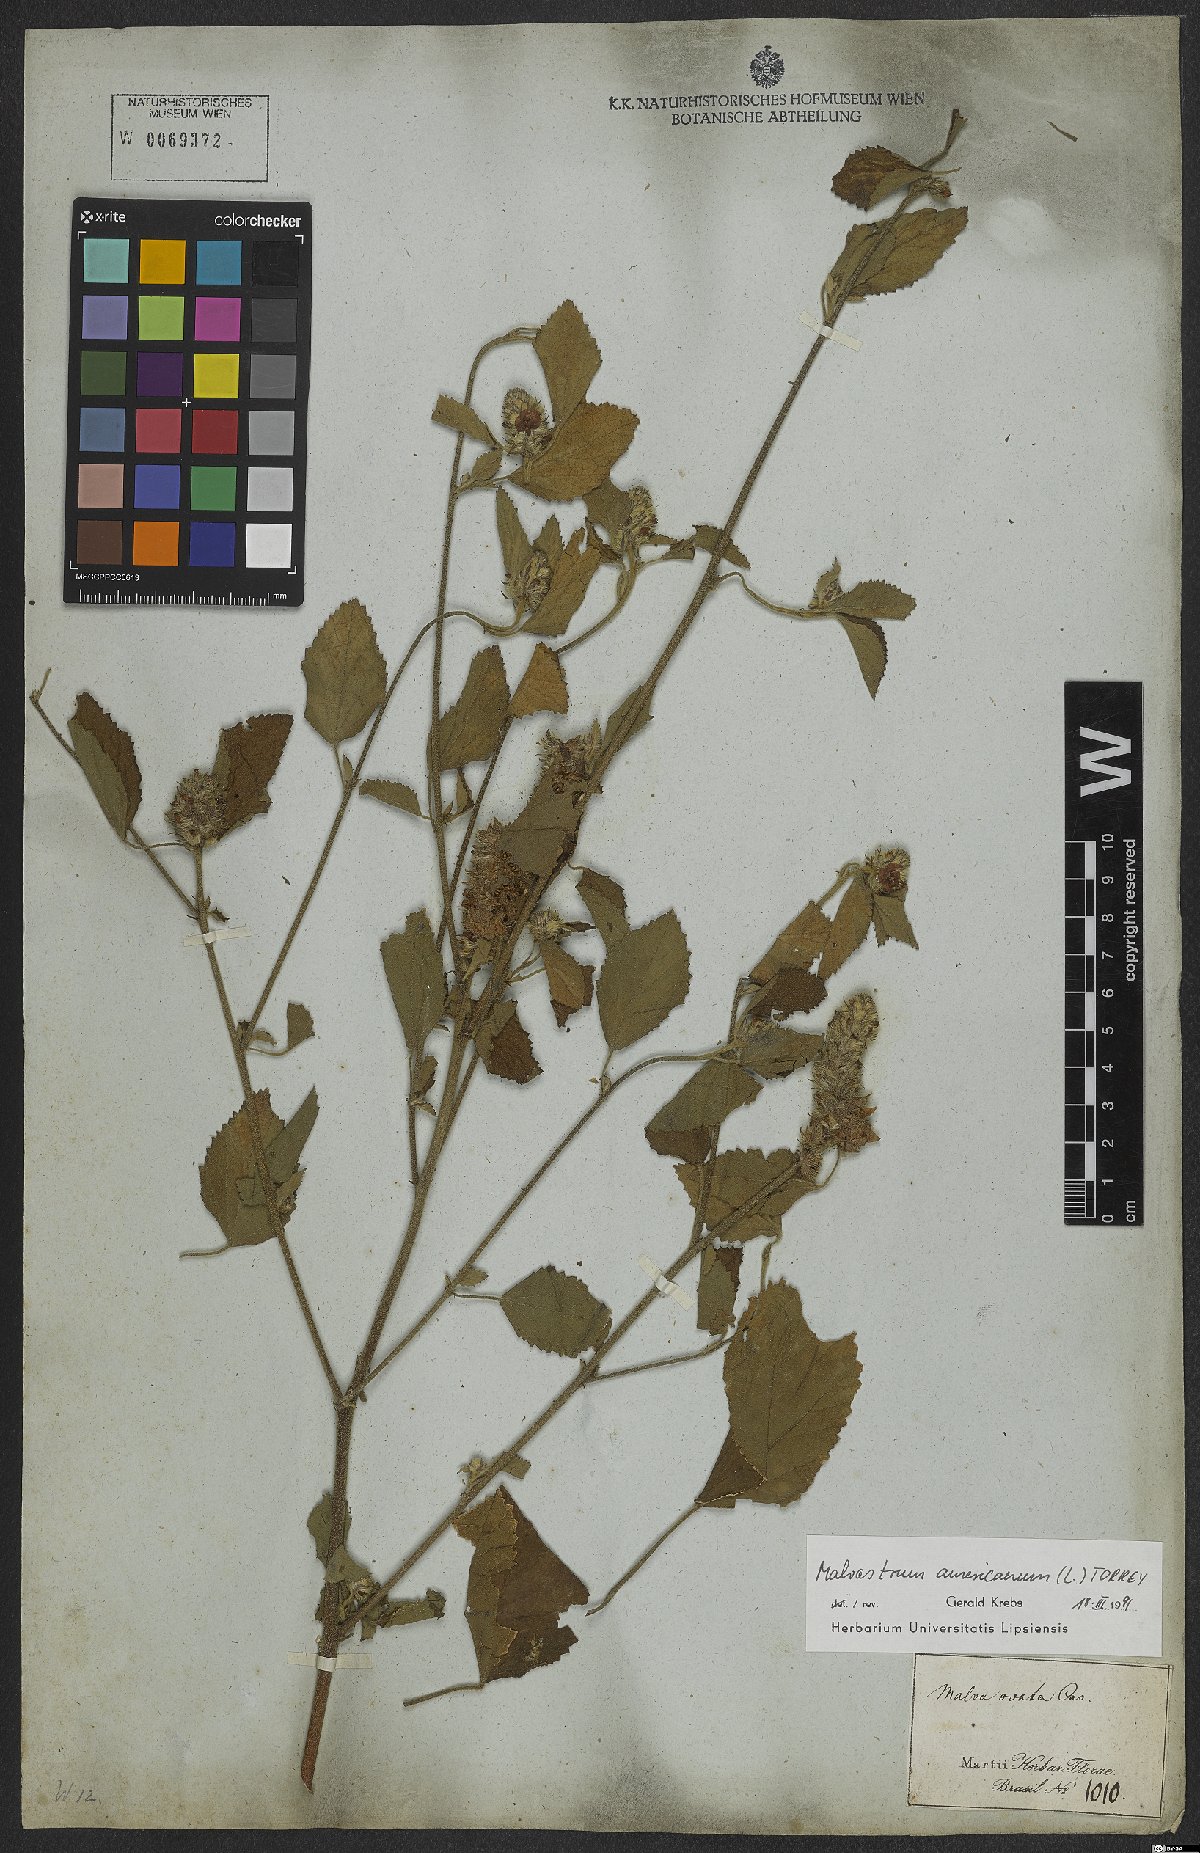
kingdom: Plantae
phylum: Tracheophyta
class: Magnoliopsida
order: Malvales
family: Malvaceae
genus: Malvastrum
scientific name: Malvastrum americanum
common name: Spiked malvastrum
